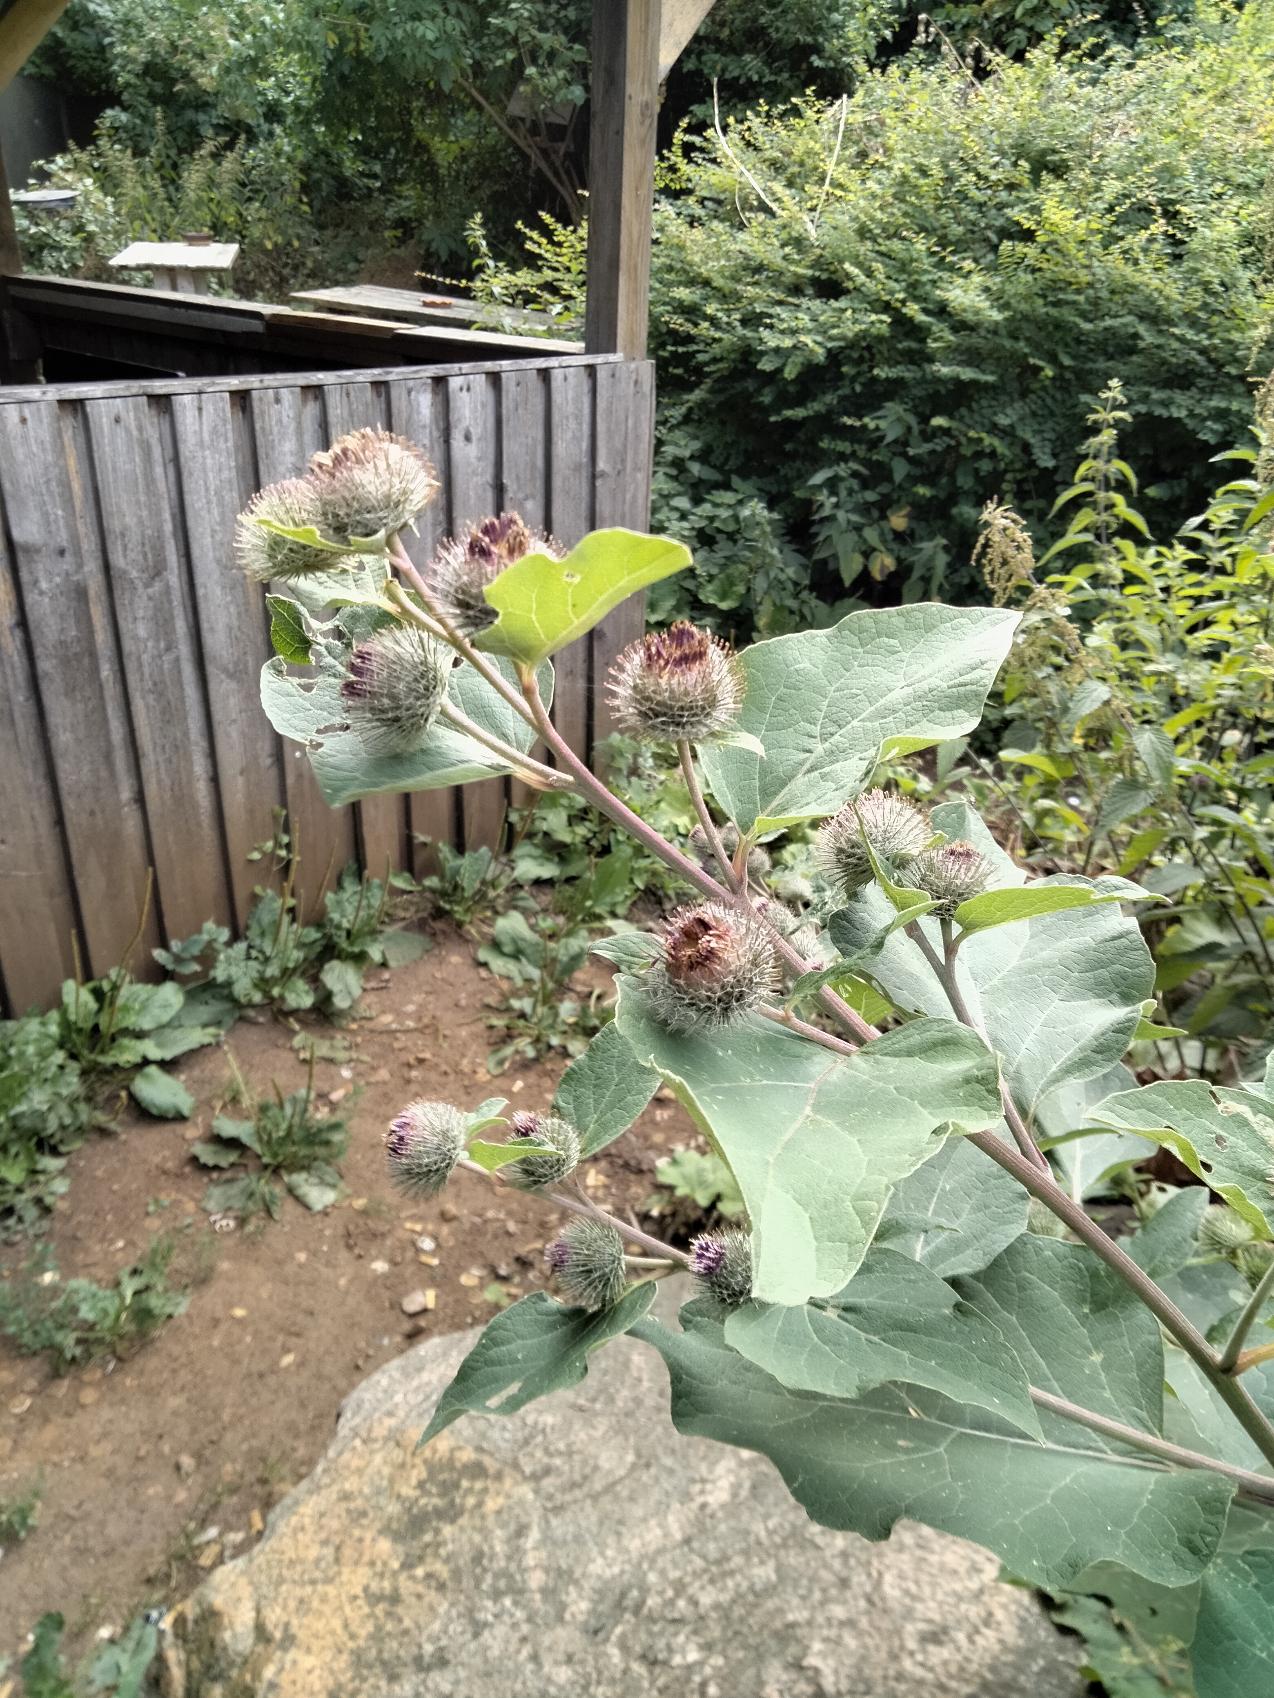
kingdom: Plantae
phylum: Tracheophyta
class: Magnoliopsida
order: Asterales
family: Asteraceae
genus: Arctium
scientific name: Arctium nemorosum
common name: Skov-burre
